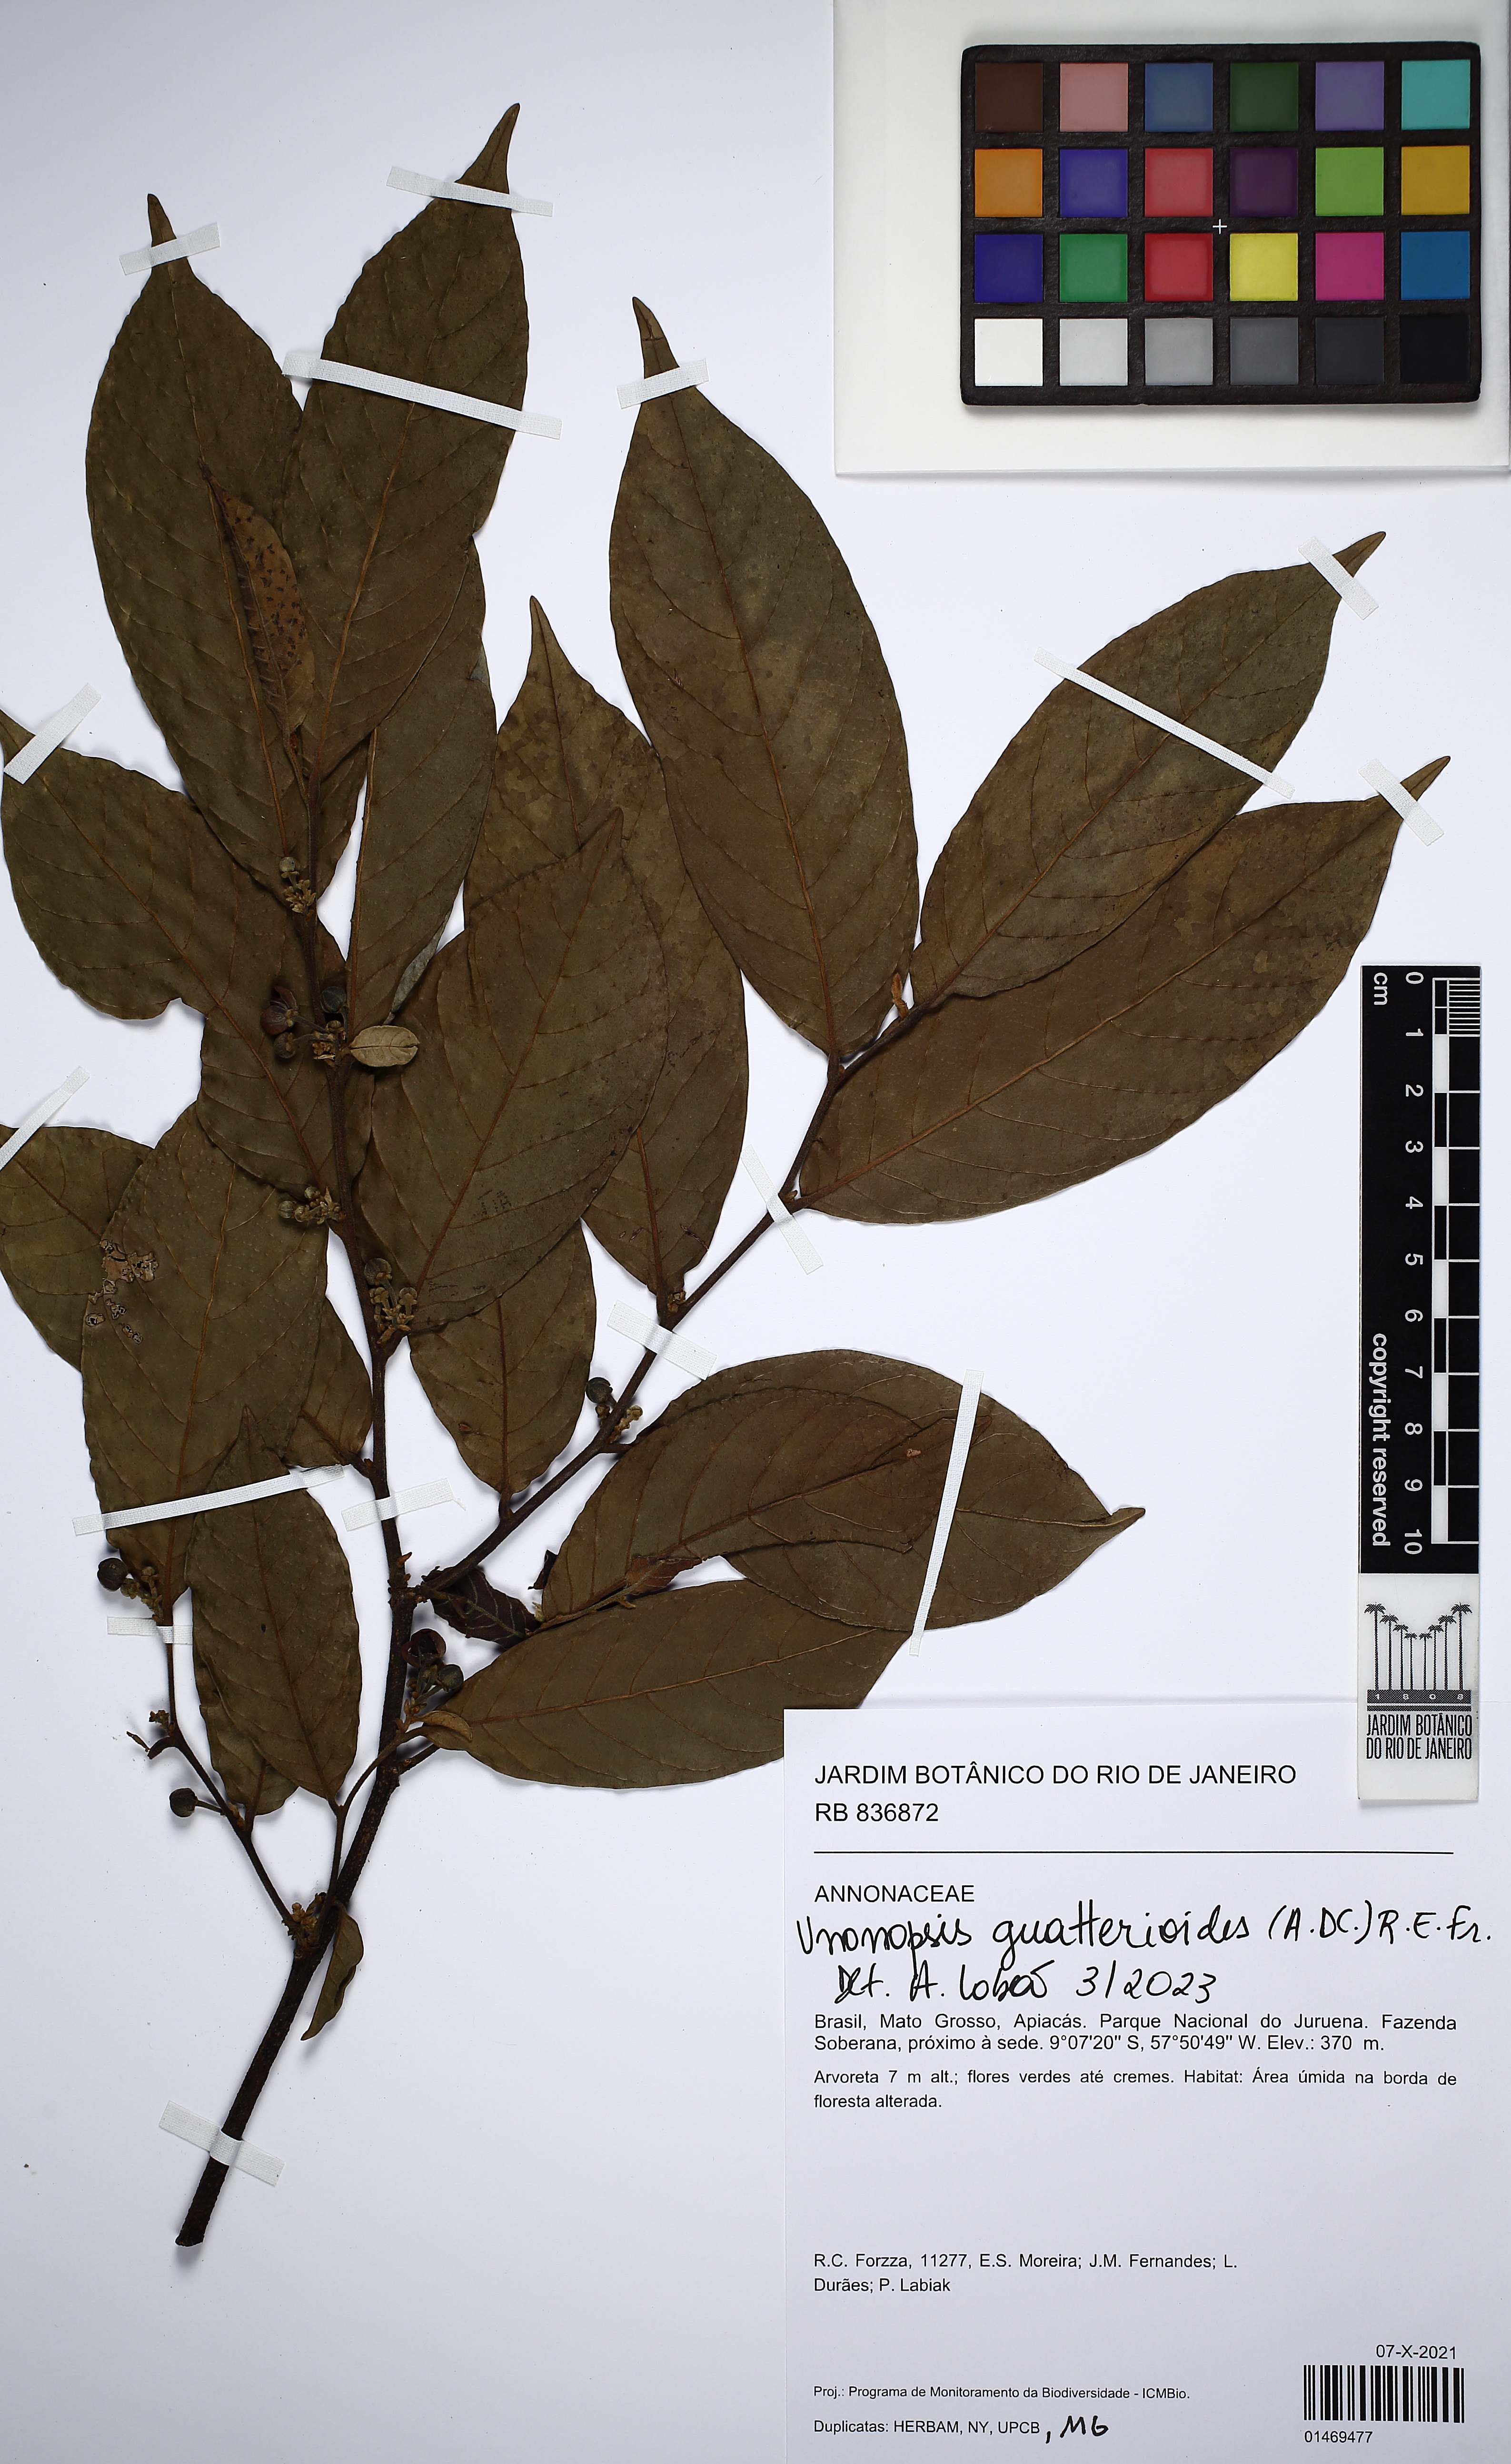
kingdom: Plantae
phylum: Tracheophyta
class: Magnoliopsida
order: Magnoliales
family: Annonaceae
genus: Unonopsis
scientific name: Unonopsis guatterioides
